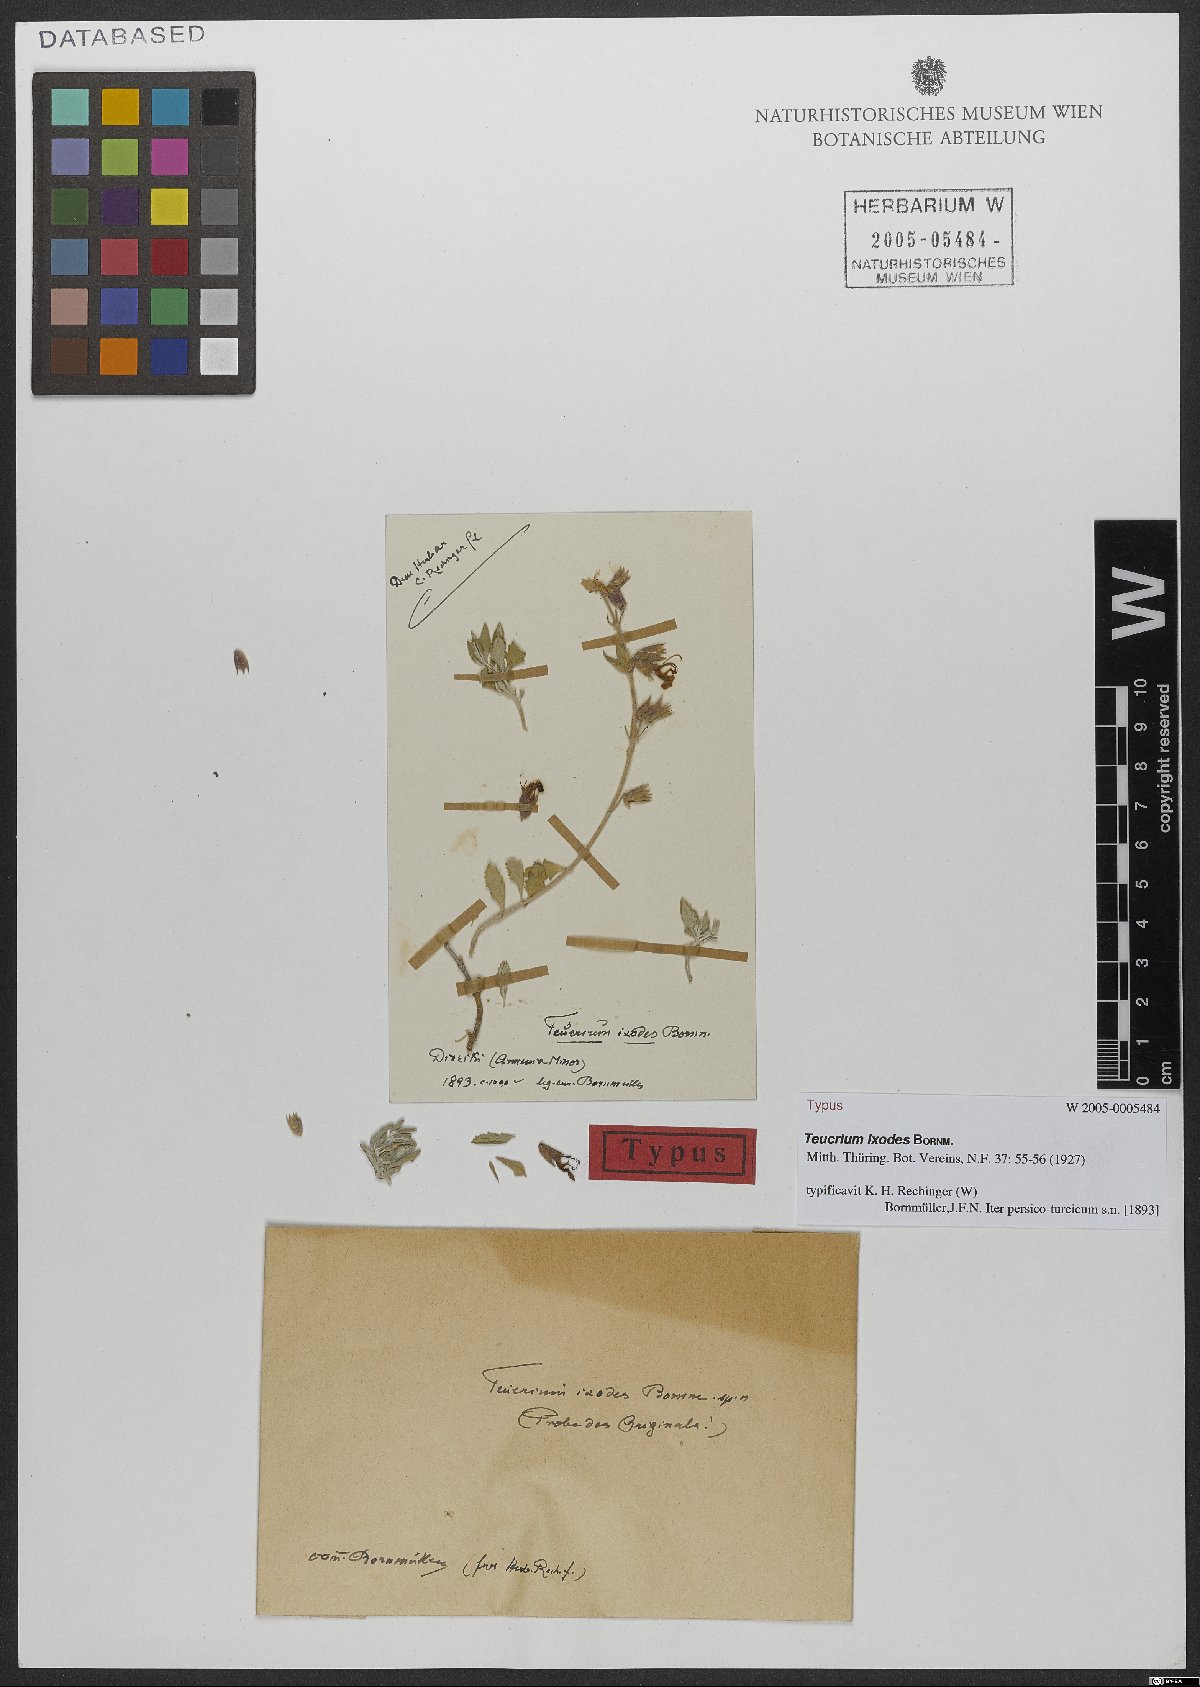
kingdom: Plantae
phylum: Tracheophyta
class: Magnoliopsida
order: Lamiales
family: Lamiaceae
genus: Teucrium
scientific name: Teucrium ixodes
